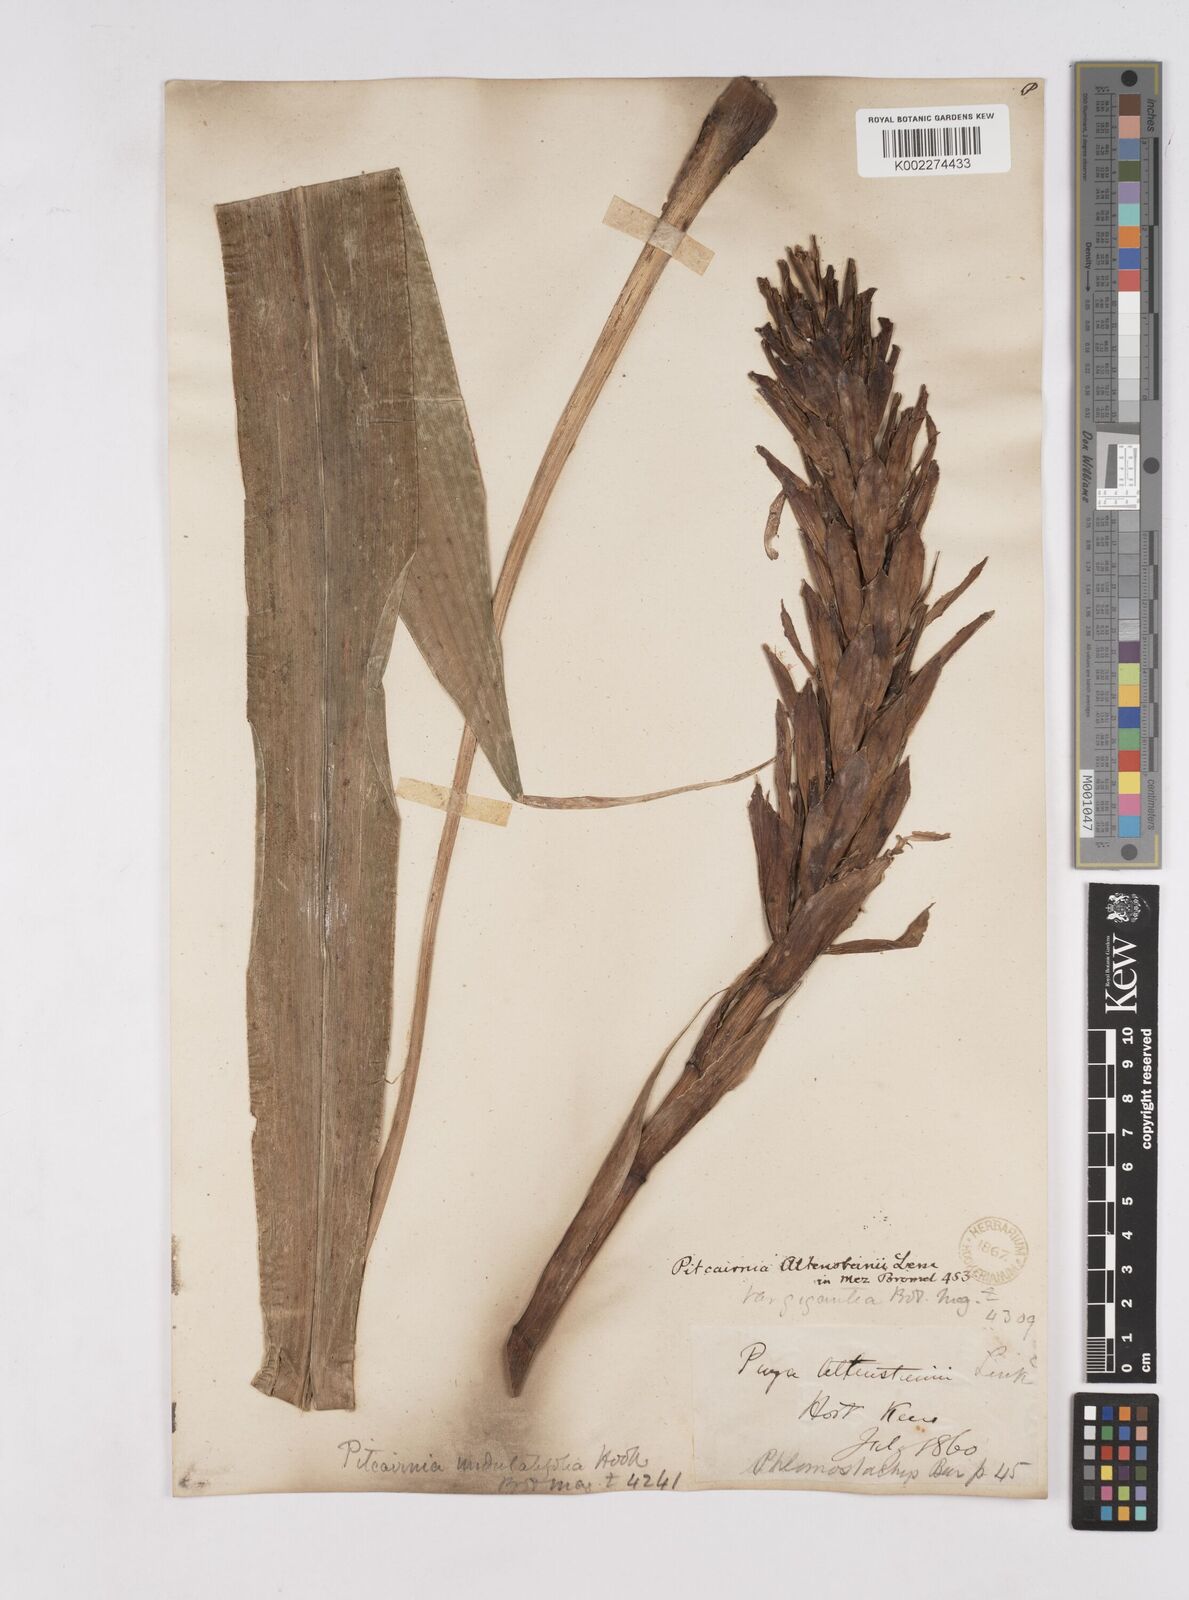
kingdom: Plantae
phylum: Tracheophyta
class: Liliopsida
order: Poales
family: Bromeliaceae
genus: Pitcairnia
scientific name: Pitcairnia altensteinii
